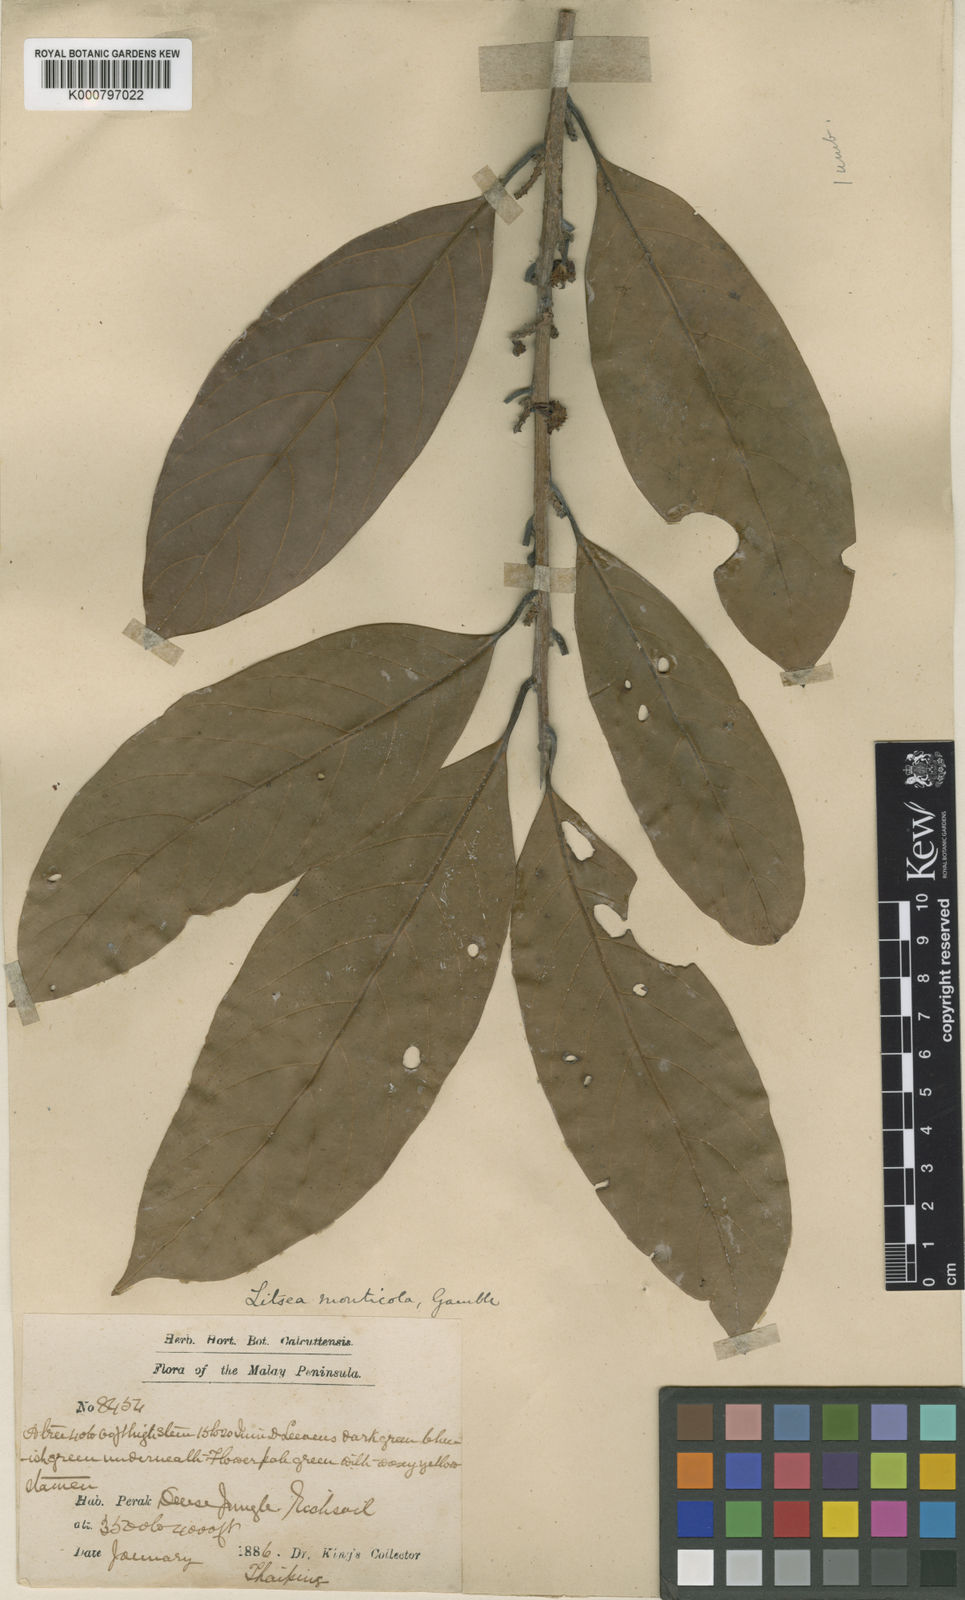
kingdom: Plantae
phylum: Tracheophyta
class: Magnoliopsida
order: Laurales
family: Lauraceae
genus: Litsea
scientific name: Litsea resinosa
